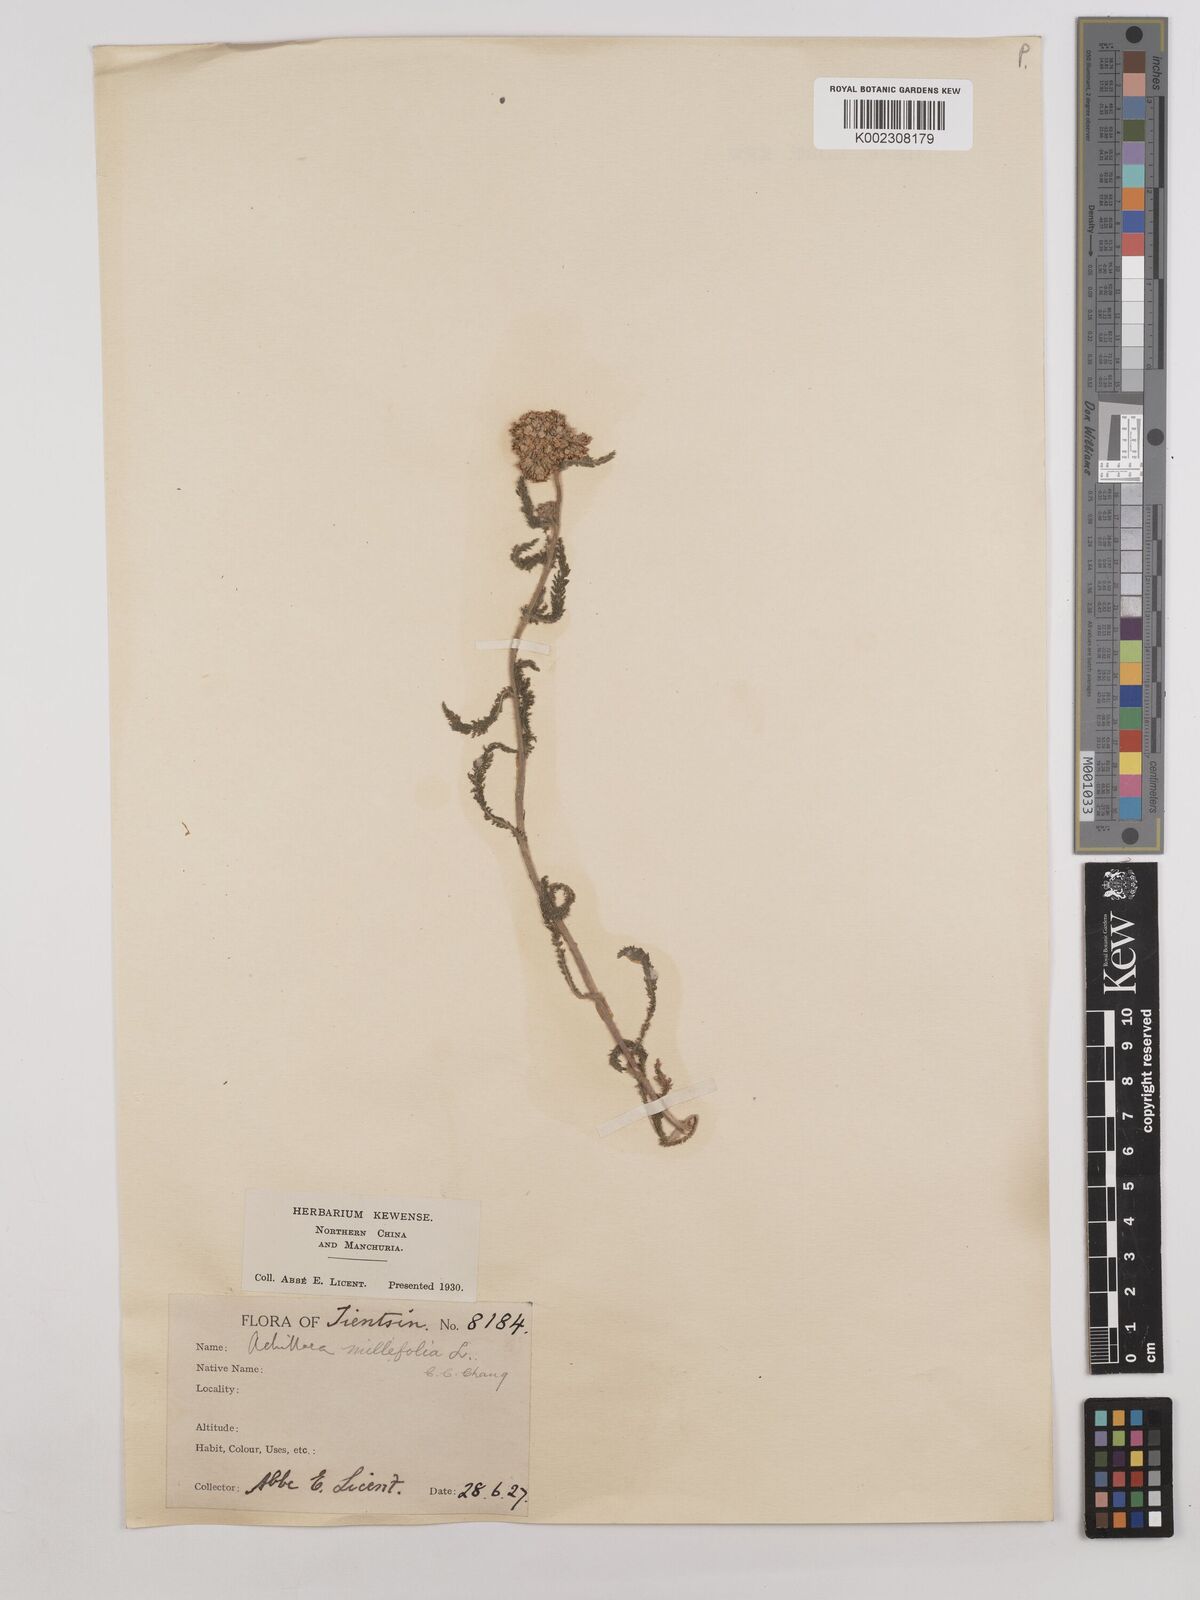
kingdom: Plantae
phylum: Tracheophyta
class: Magnoliopsida
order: Asterales
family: Asteraceae
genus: Achillea
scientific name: Achillea alpina
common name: Siberian yarrow
